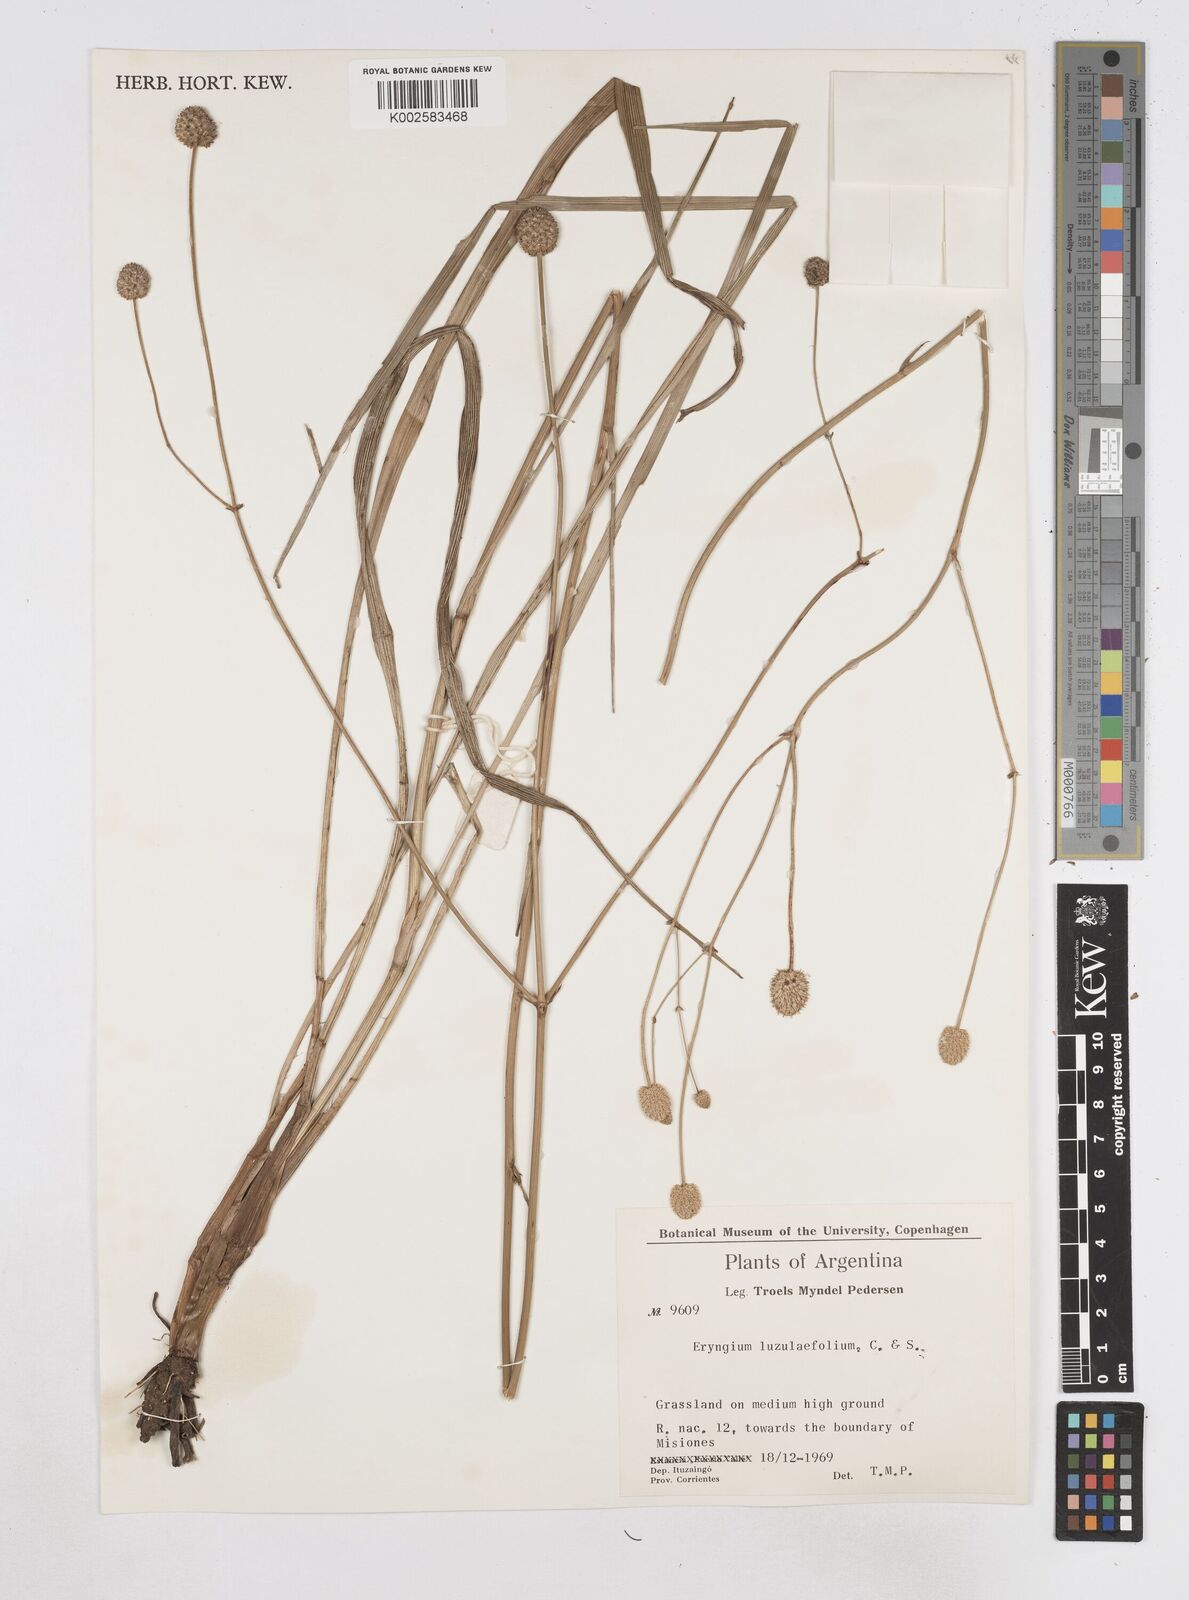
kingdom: Plantae
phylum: Tracheophyta
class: Magnoliopsida
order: Apiales
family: Apiaceae
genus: Eryngium
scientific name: Eryngium luzulifolium
